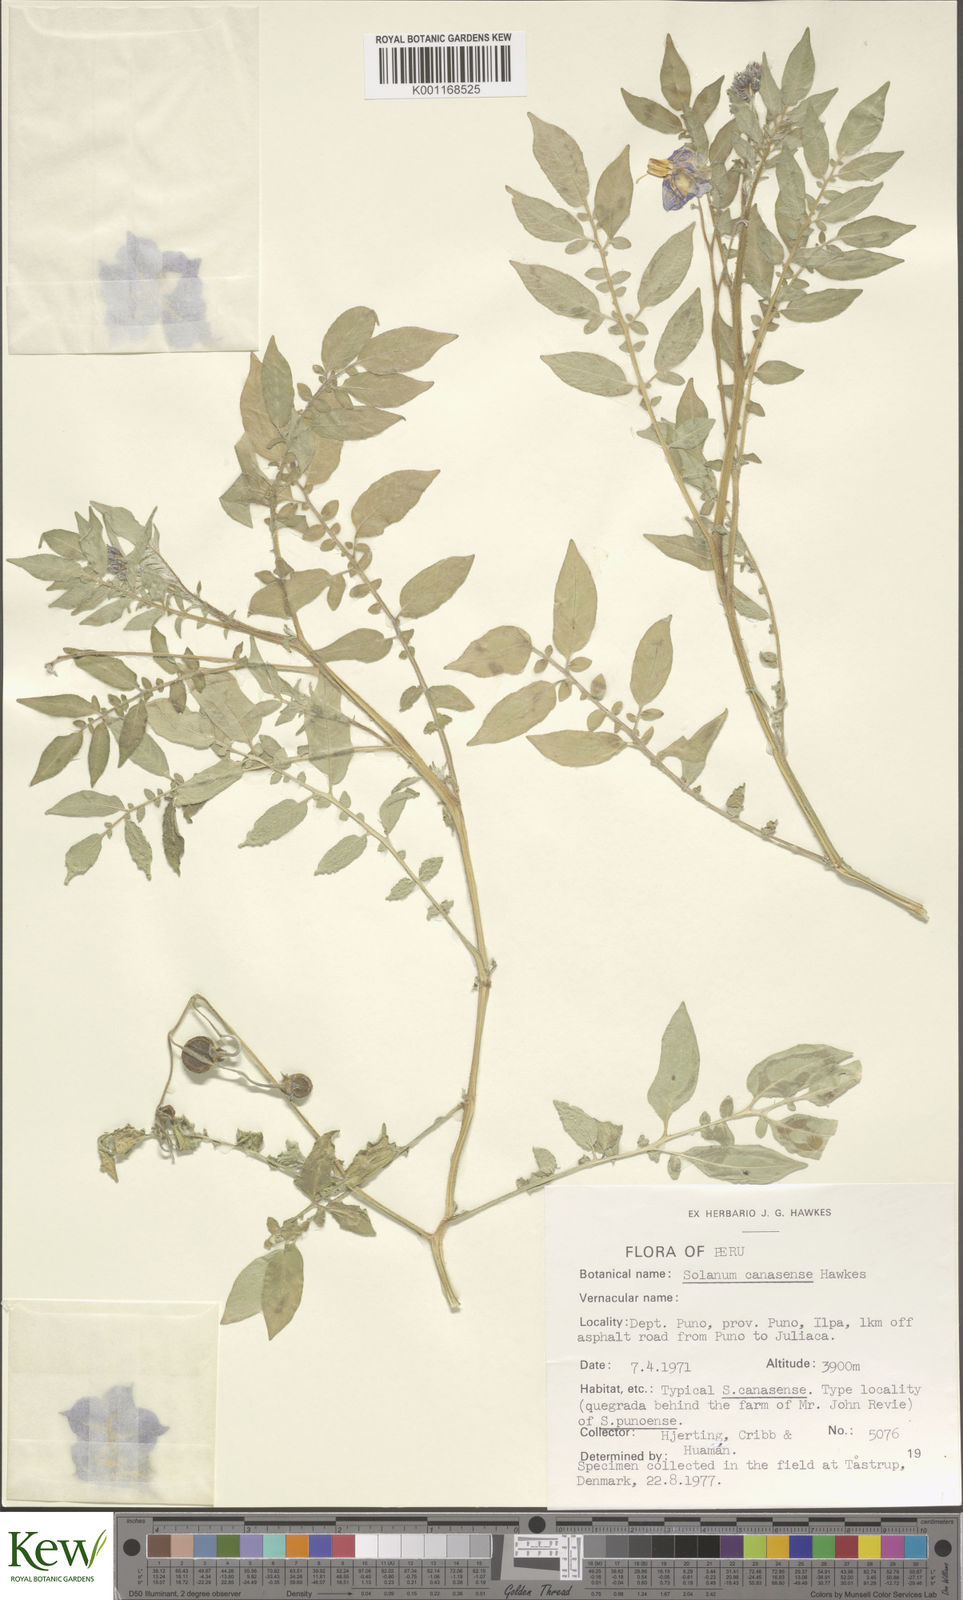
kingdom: Plantae
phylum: Tracheophyta
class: Magnoliopsida
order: Solanales
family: Solanaceae
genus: Solanum
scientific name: Solanum candolleanum
